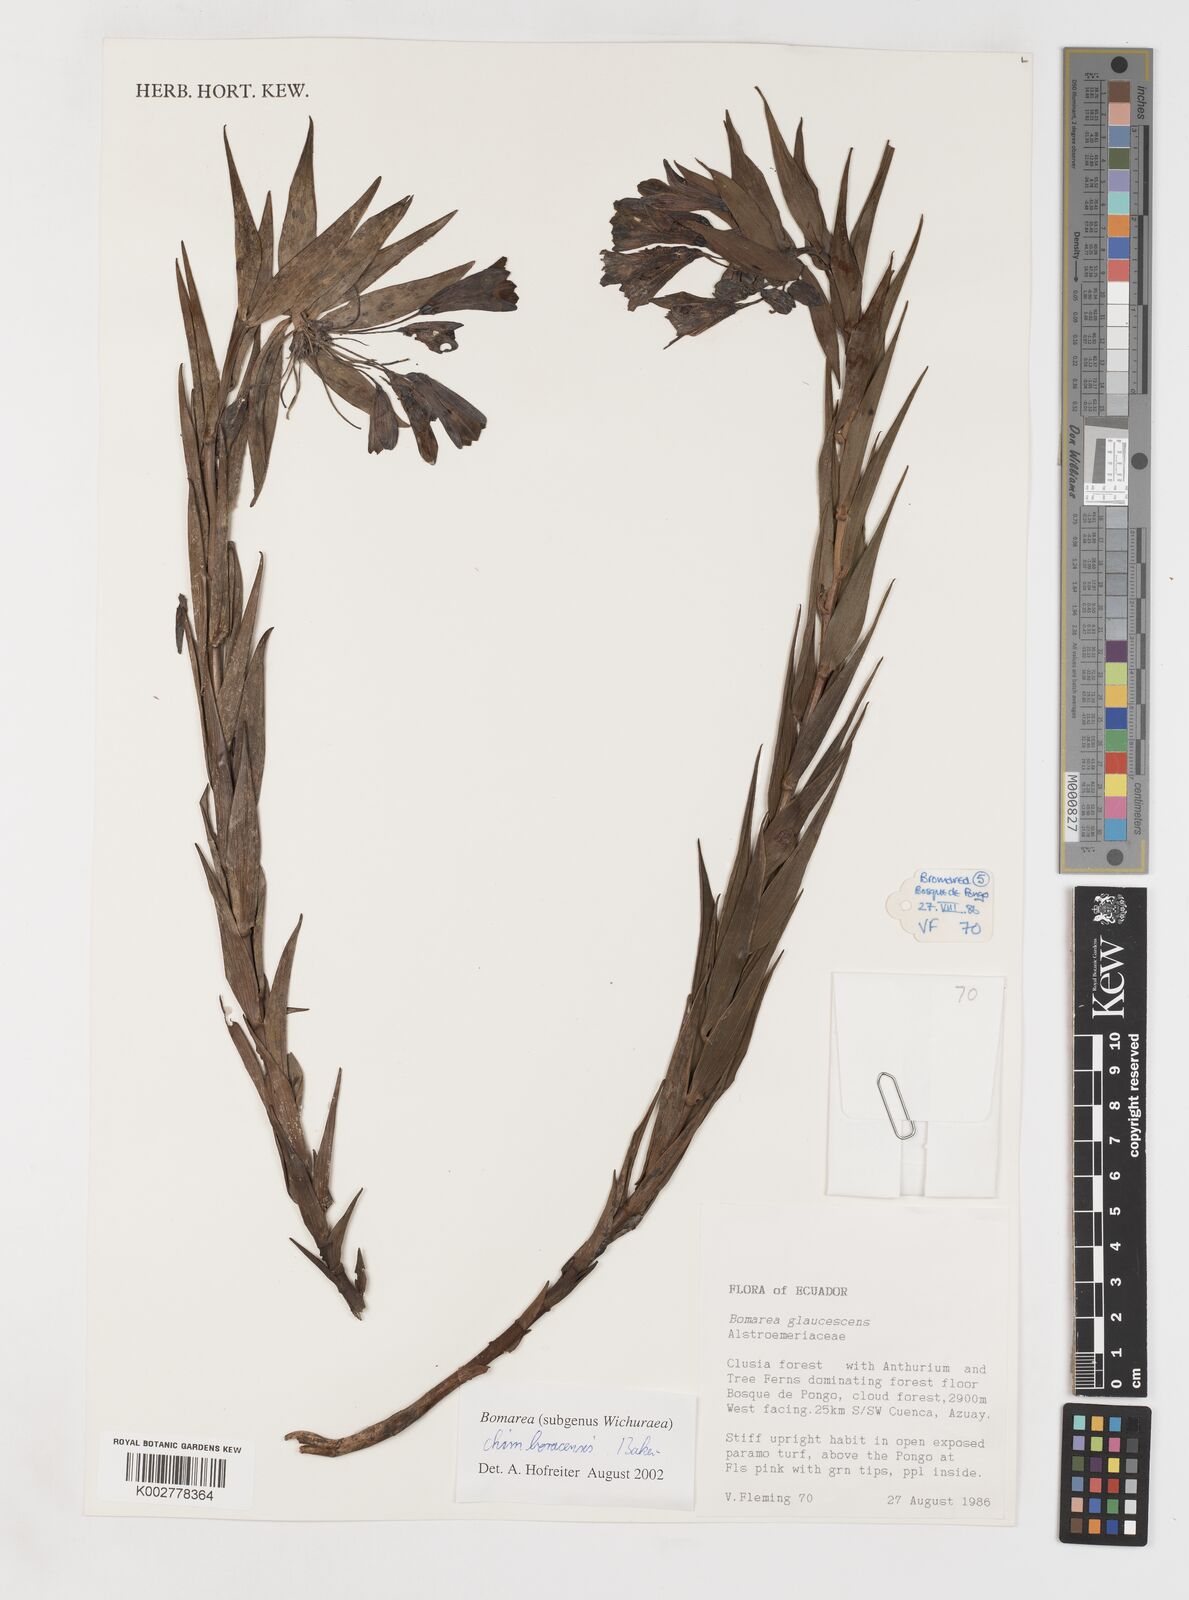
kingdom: Plantae
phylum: Tracheophyta
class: Liliopsida
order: Liliales
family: Alstroemeriaceae
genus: Bomarea
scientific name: Bomarea chimboracensis
